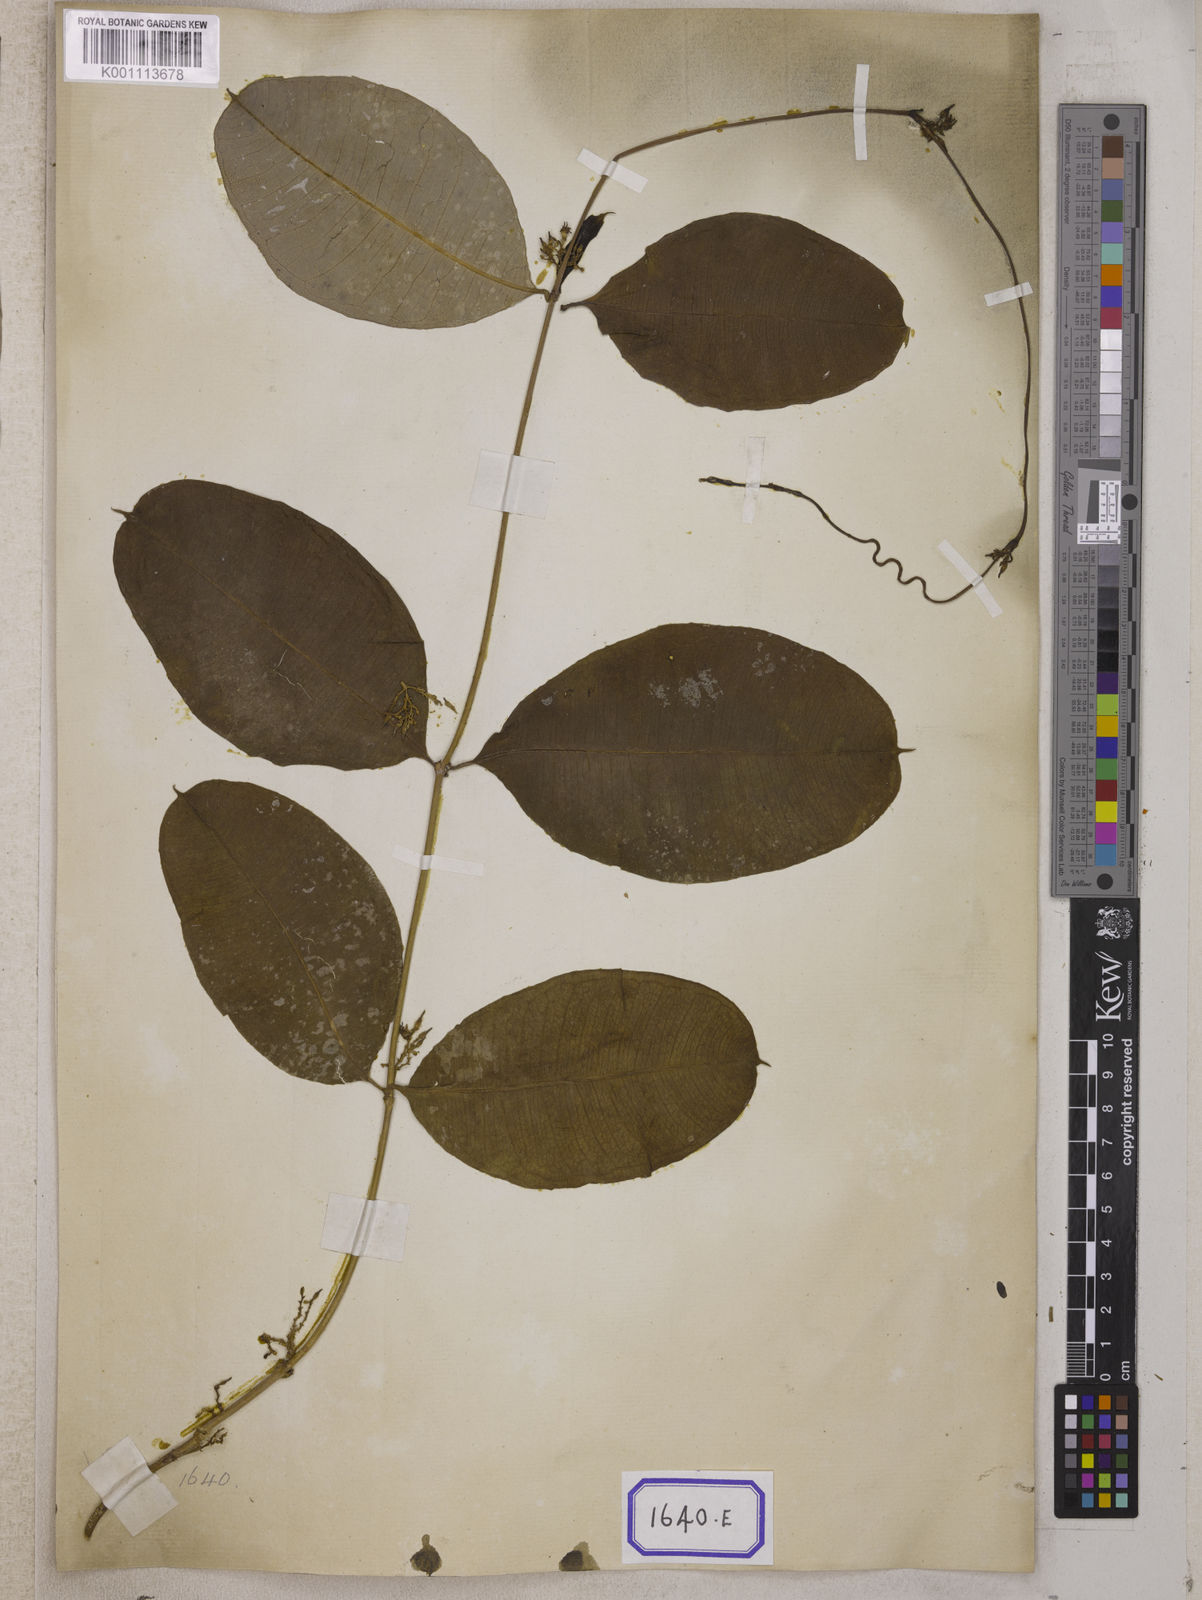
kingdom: Plantae
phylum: Tracheophyta
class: Magnoliopsida
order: Gentianales
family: Apocynaceae
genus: Cryptolepis
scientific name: Cryptolepis
